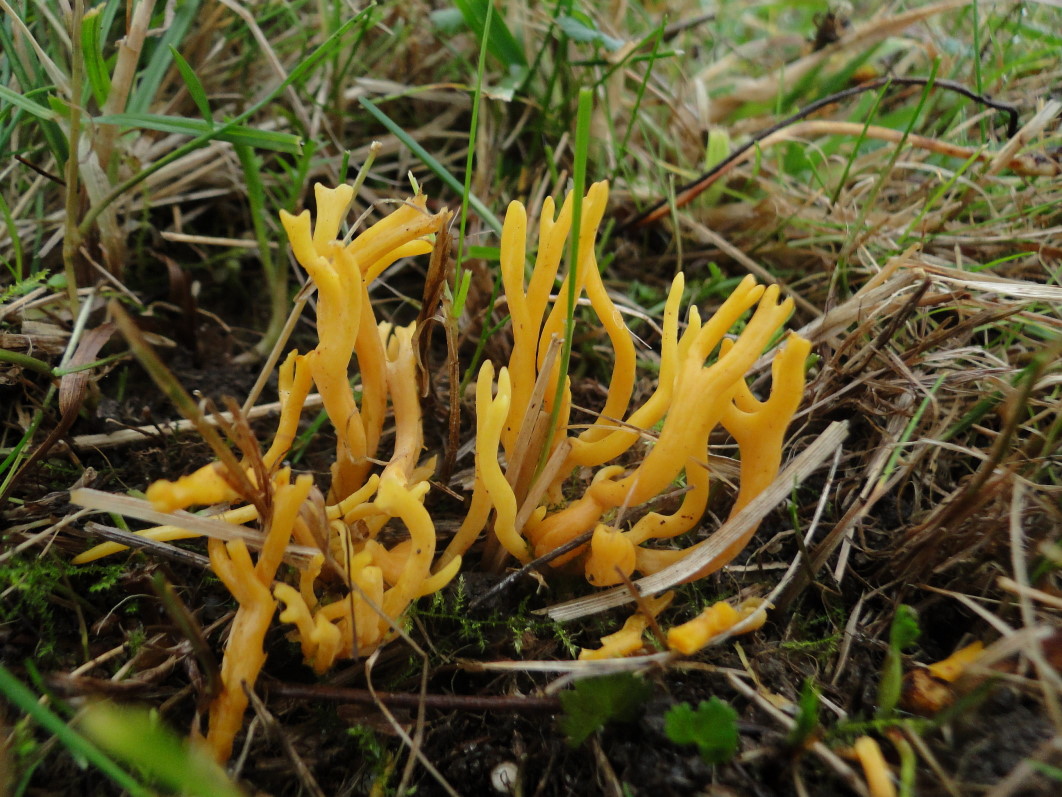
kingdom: Fungi
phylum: Basidiomycota
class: Agaricomycetes
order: Agaricales
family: Clavariaceae
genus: Clavulinopsis
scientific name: Clavulinopsis corniculata
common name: eng-køllesvamp
